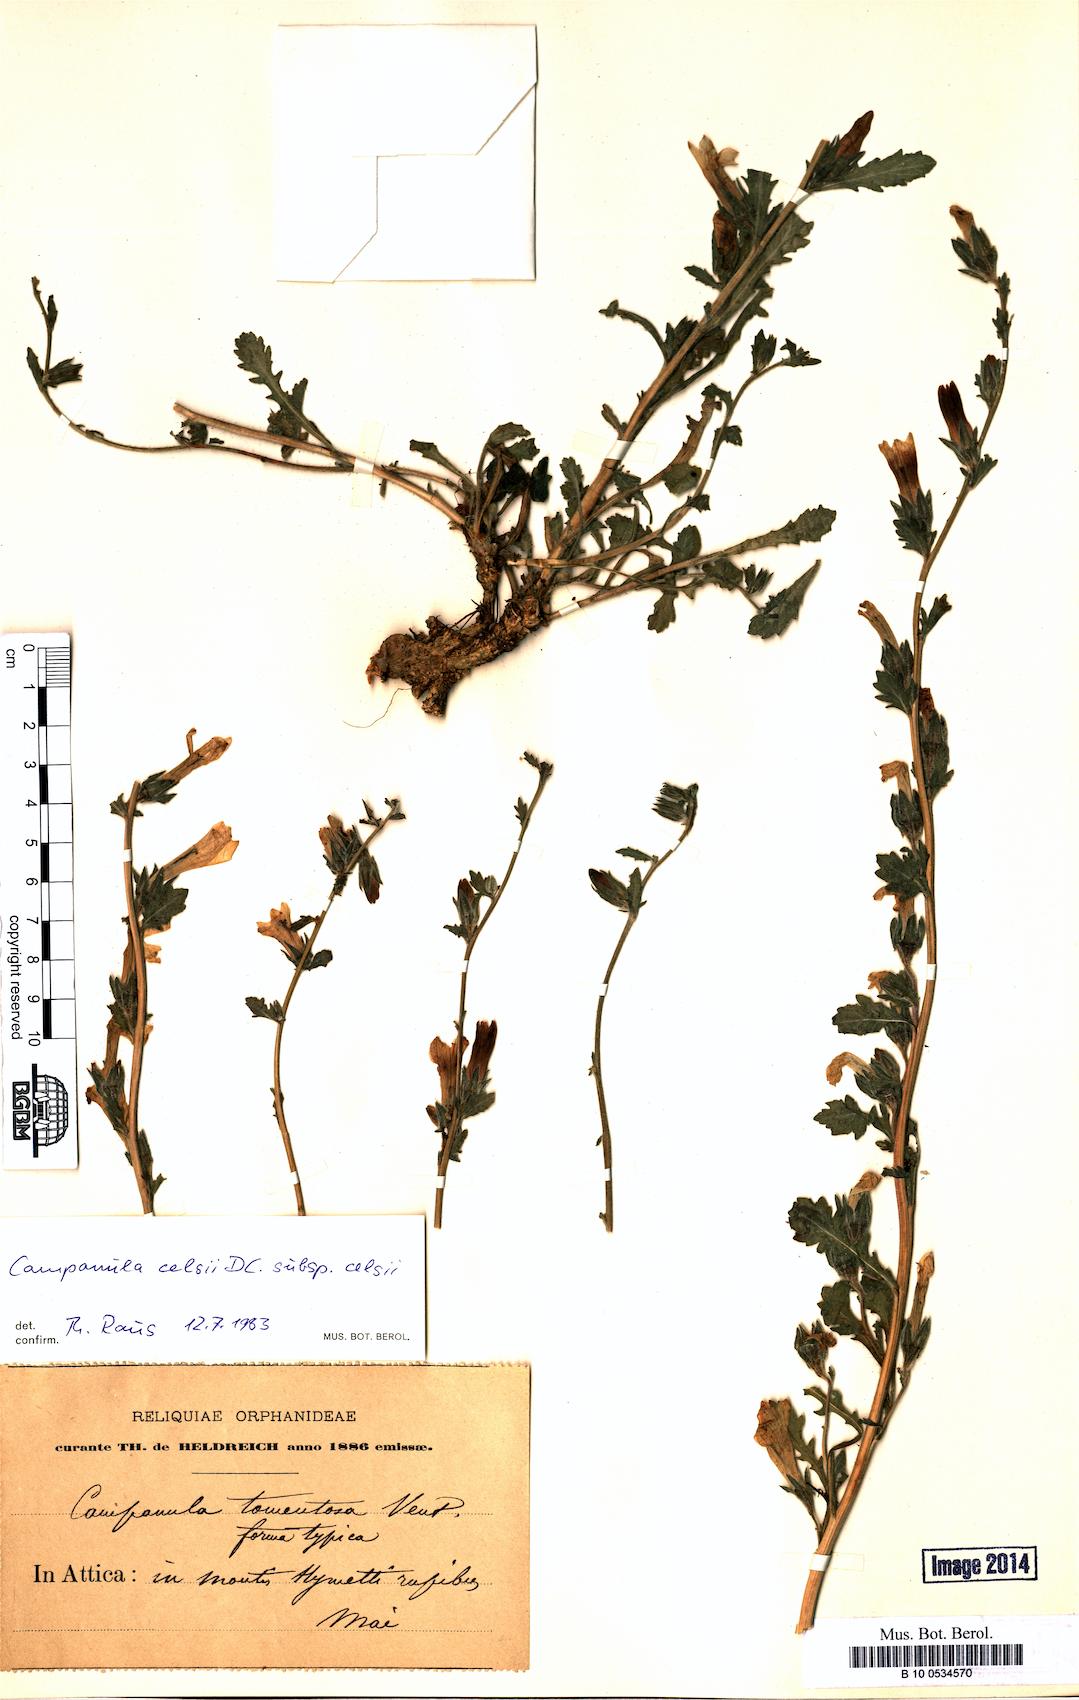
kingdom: Plantae
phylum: Tracheophyta
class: Magnoliopsida
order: Asterales
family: Campanulaceae
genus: Campanula
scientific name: Campanula celsii
